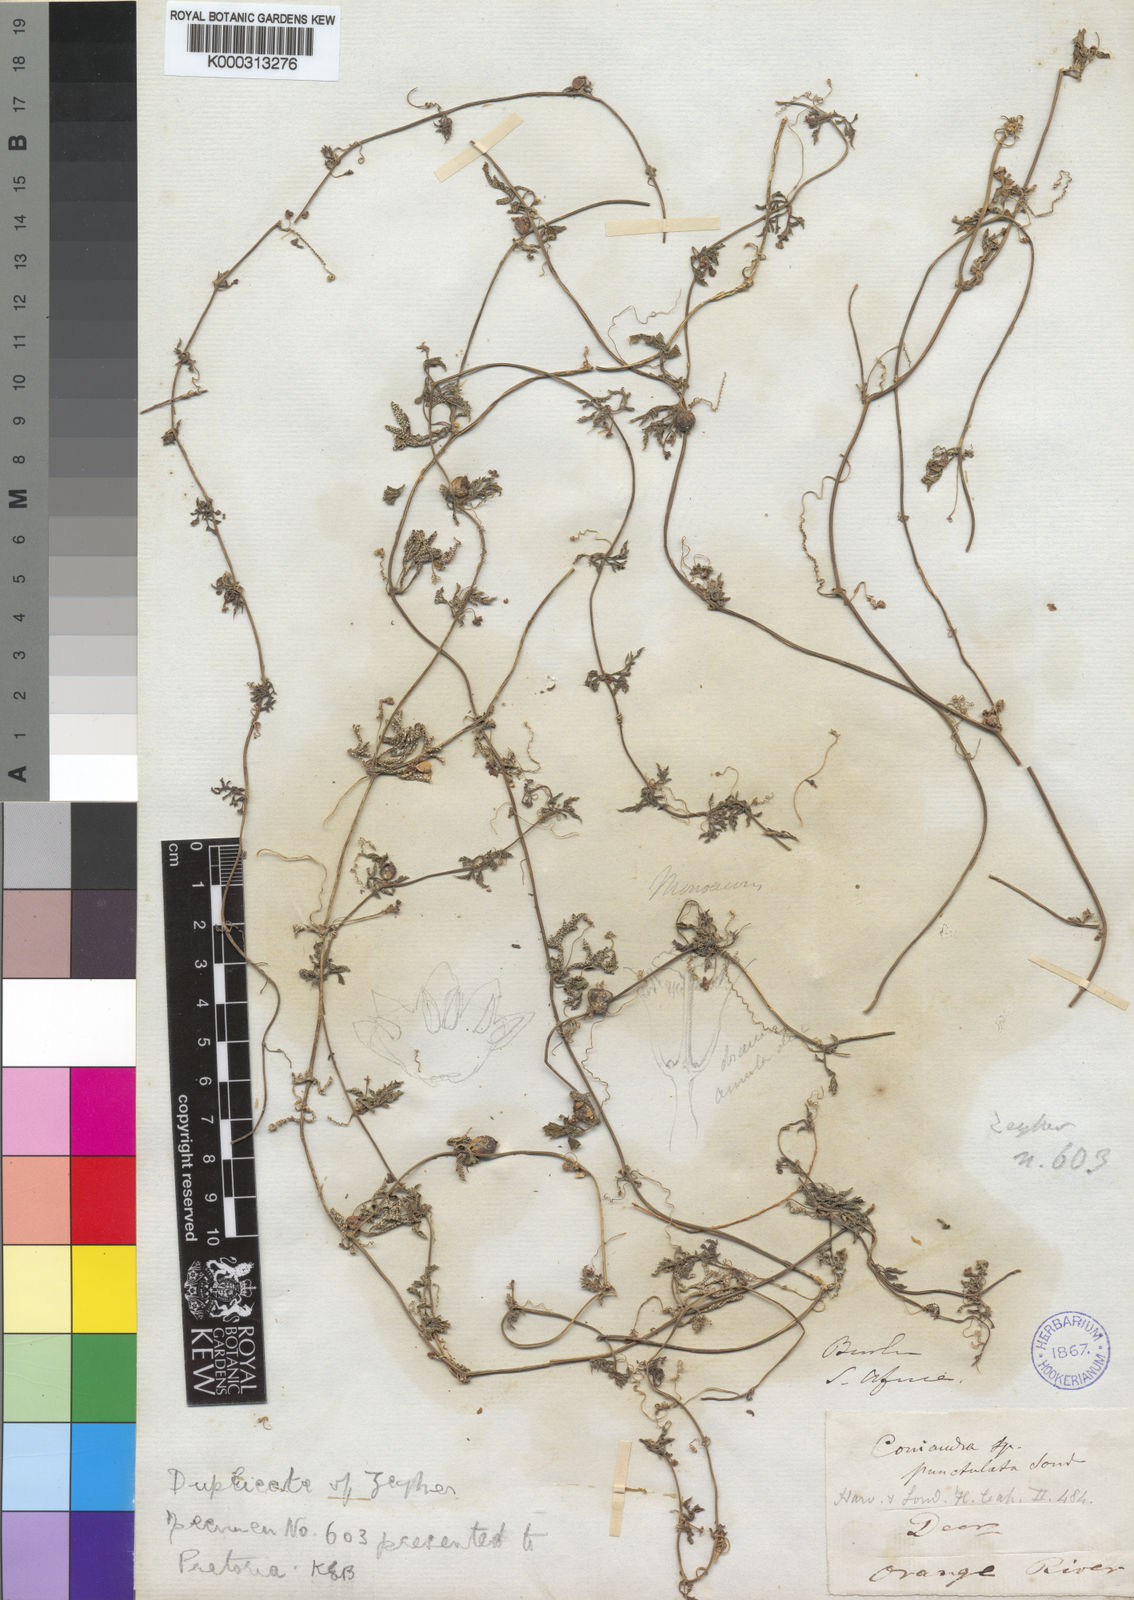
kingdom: Plantae
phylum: Tracheophyta
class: Magnoliopsida
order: Cucurbitales
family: Cucurbitaceae
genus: Kedrostis
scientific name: Kedrostis africana
